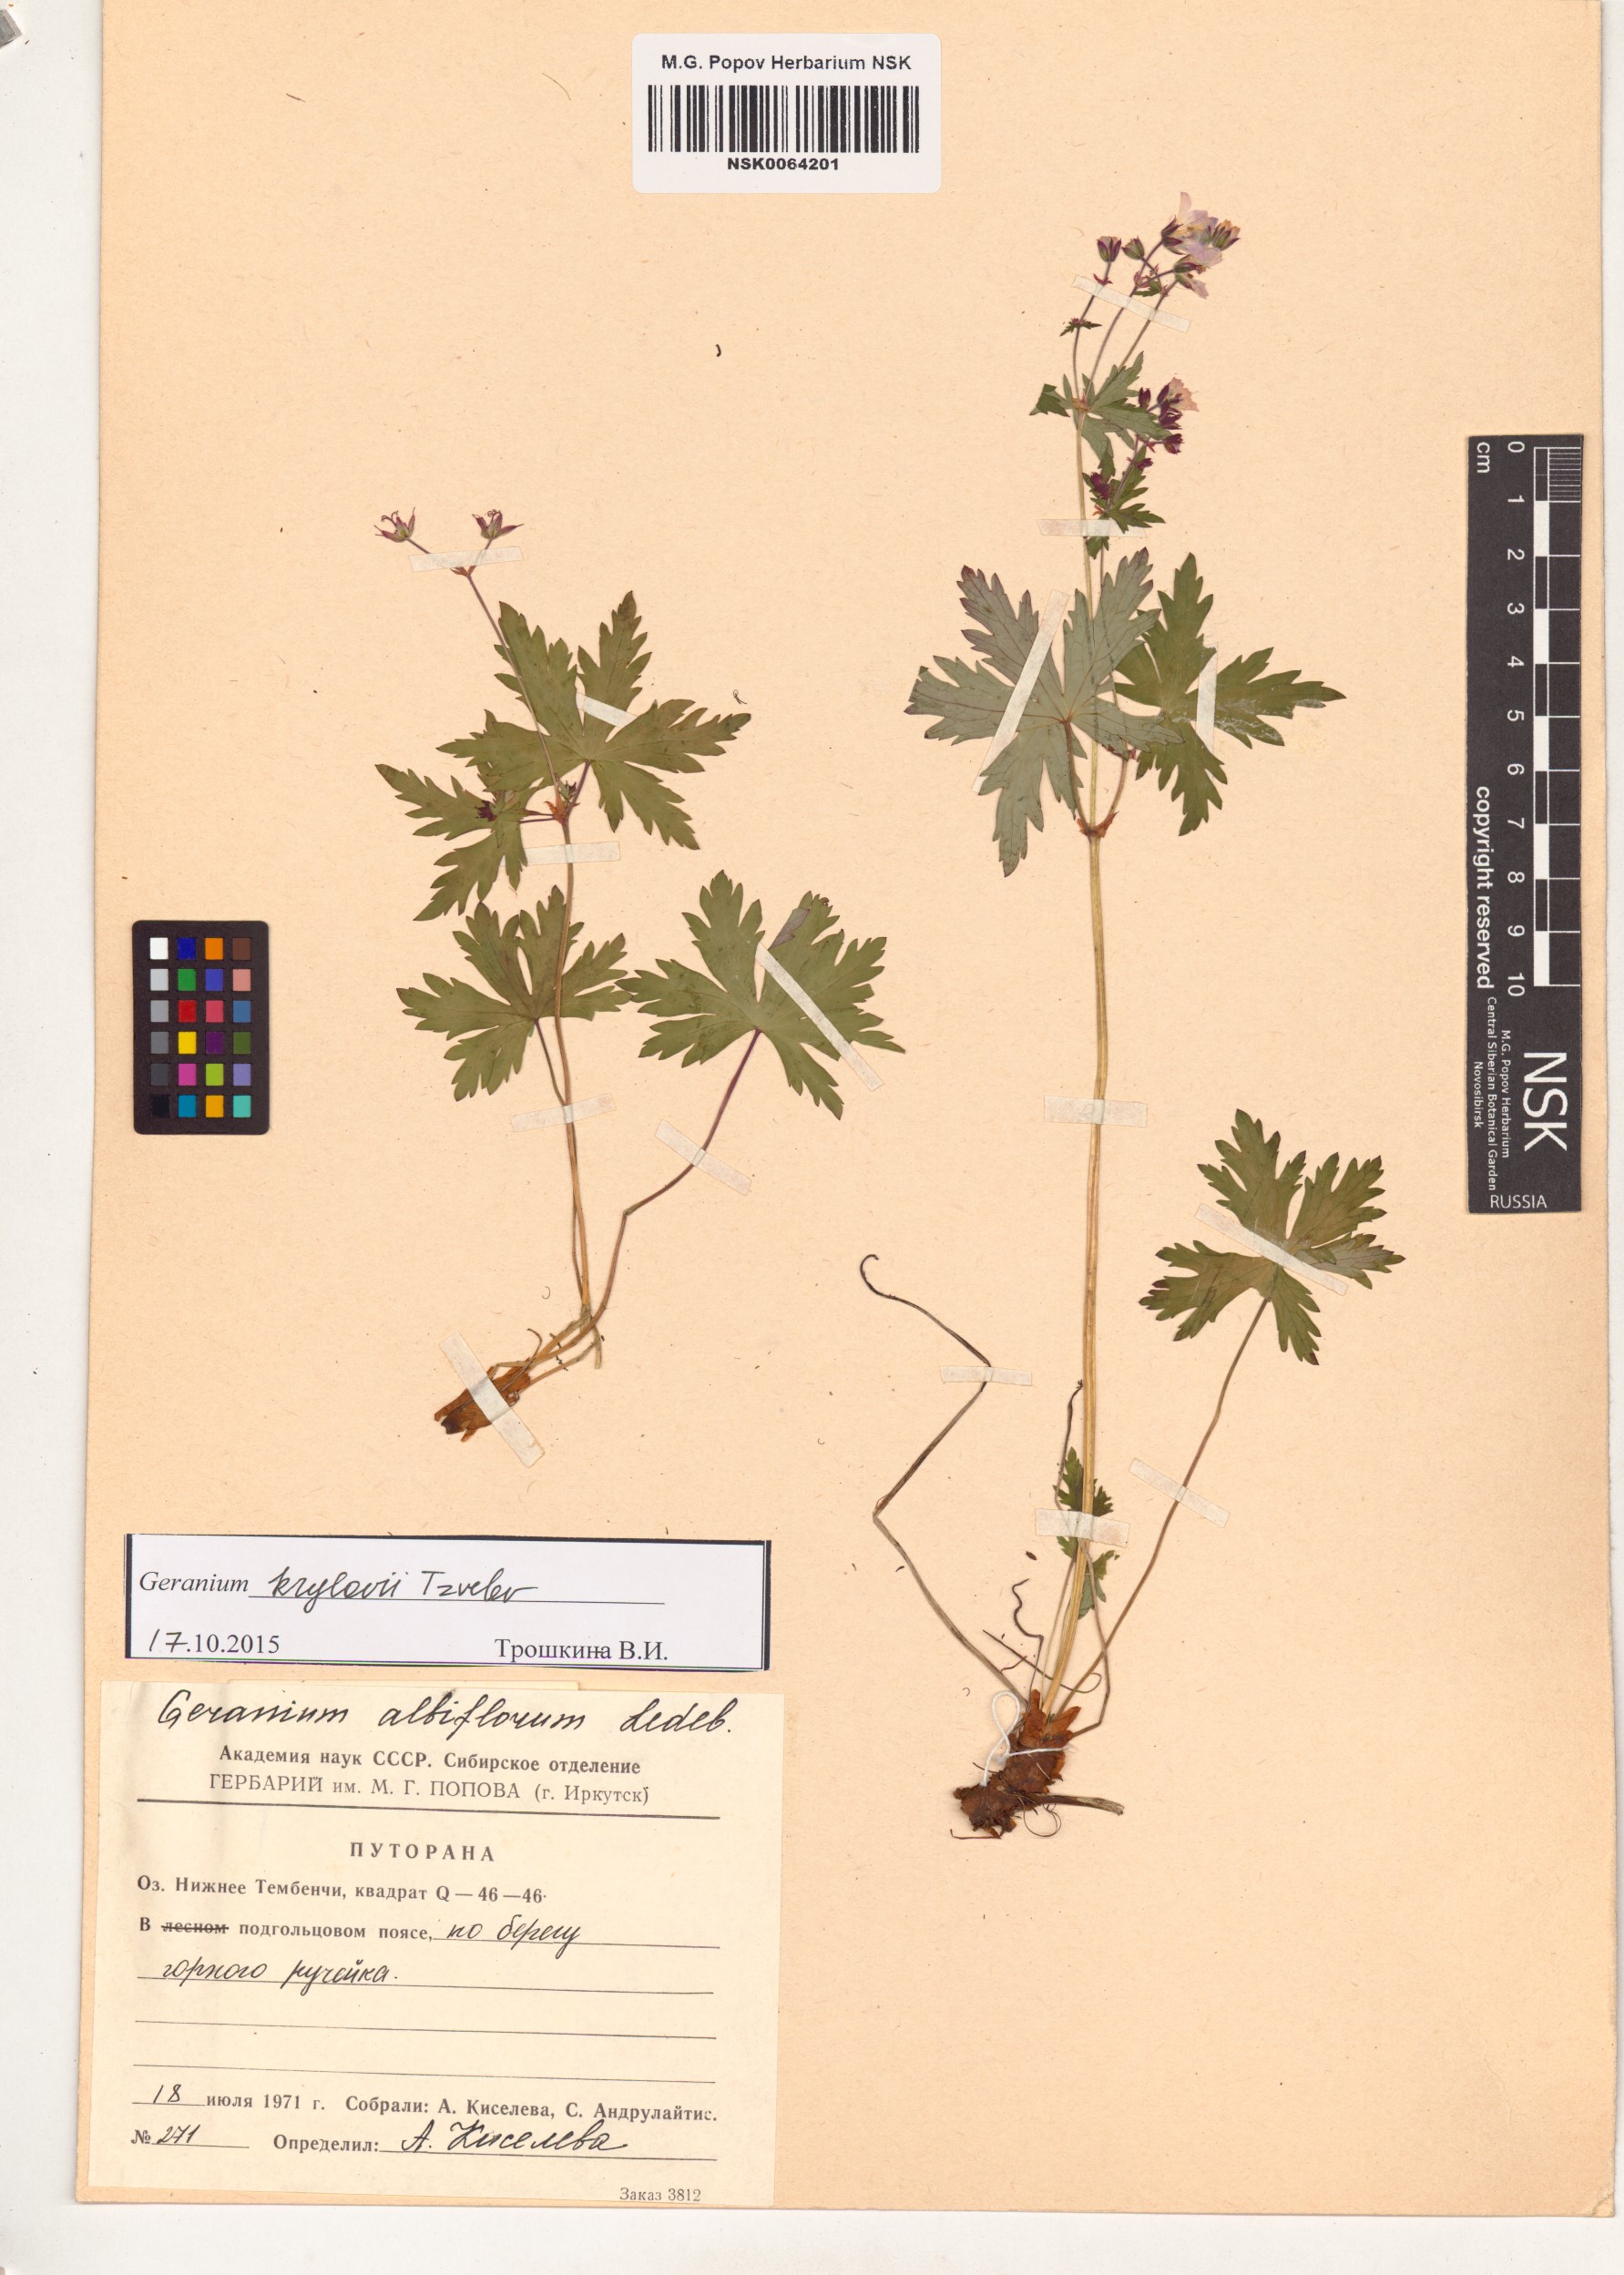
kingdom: Plantae
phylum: Tracheophyta
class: Magnoliopsida
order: Geraniales
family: Geraniaceae
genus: Geranium
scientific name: Geranium sylvaticum
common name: Wood crane's-bill
